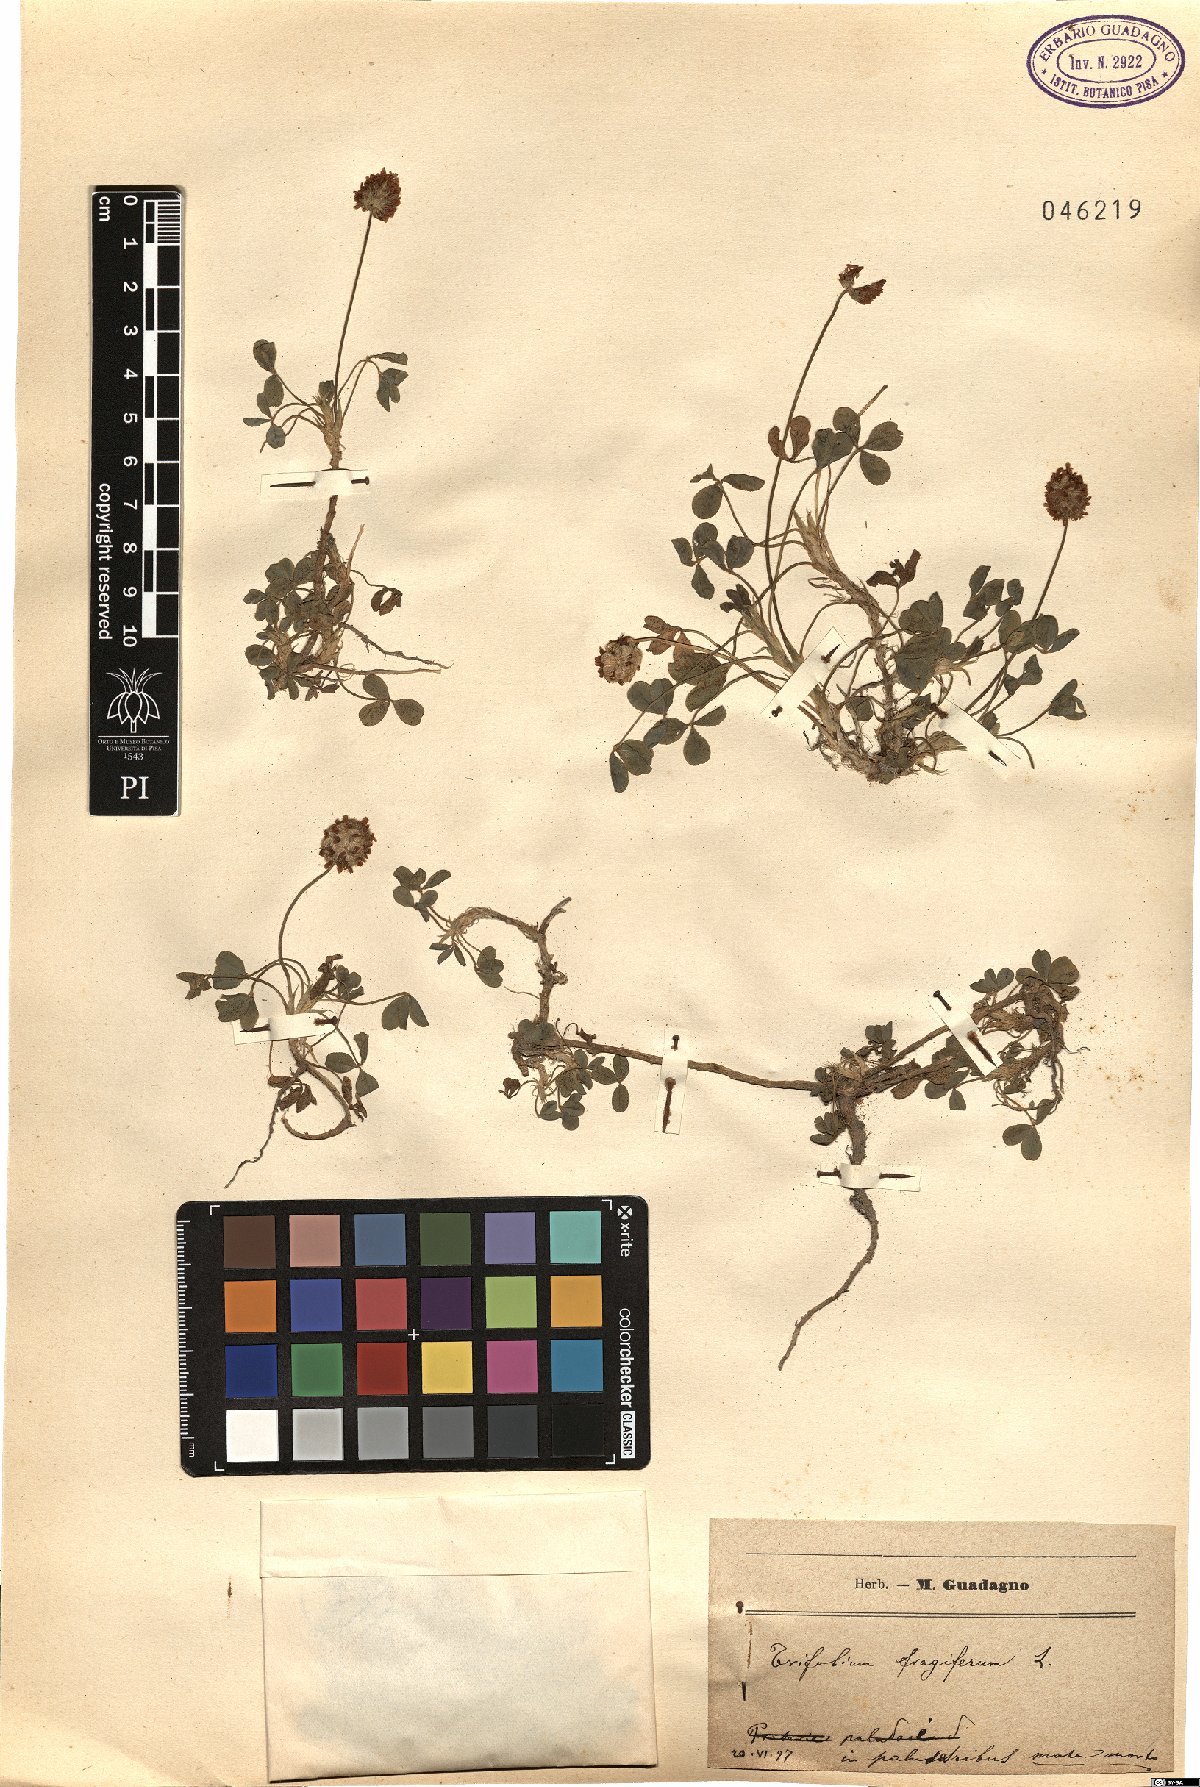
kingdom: Plantae
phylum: Tracheophyta
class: Magnoliopsida
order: Fabales
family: Fabaceae
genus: Trifolium
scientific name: Trifolium fragiferum
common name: Strawberry clover
